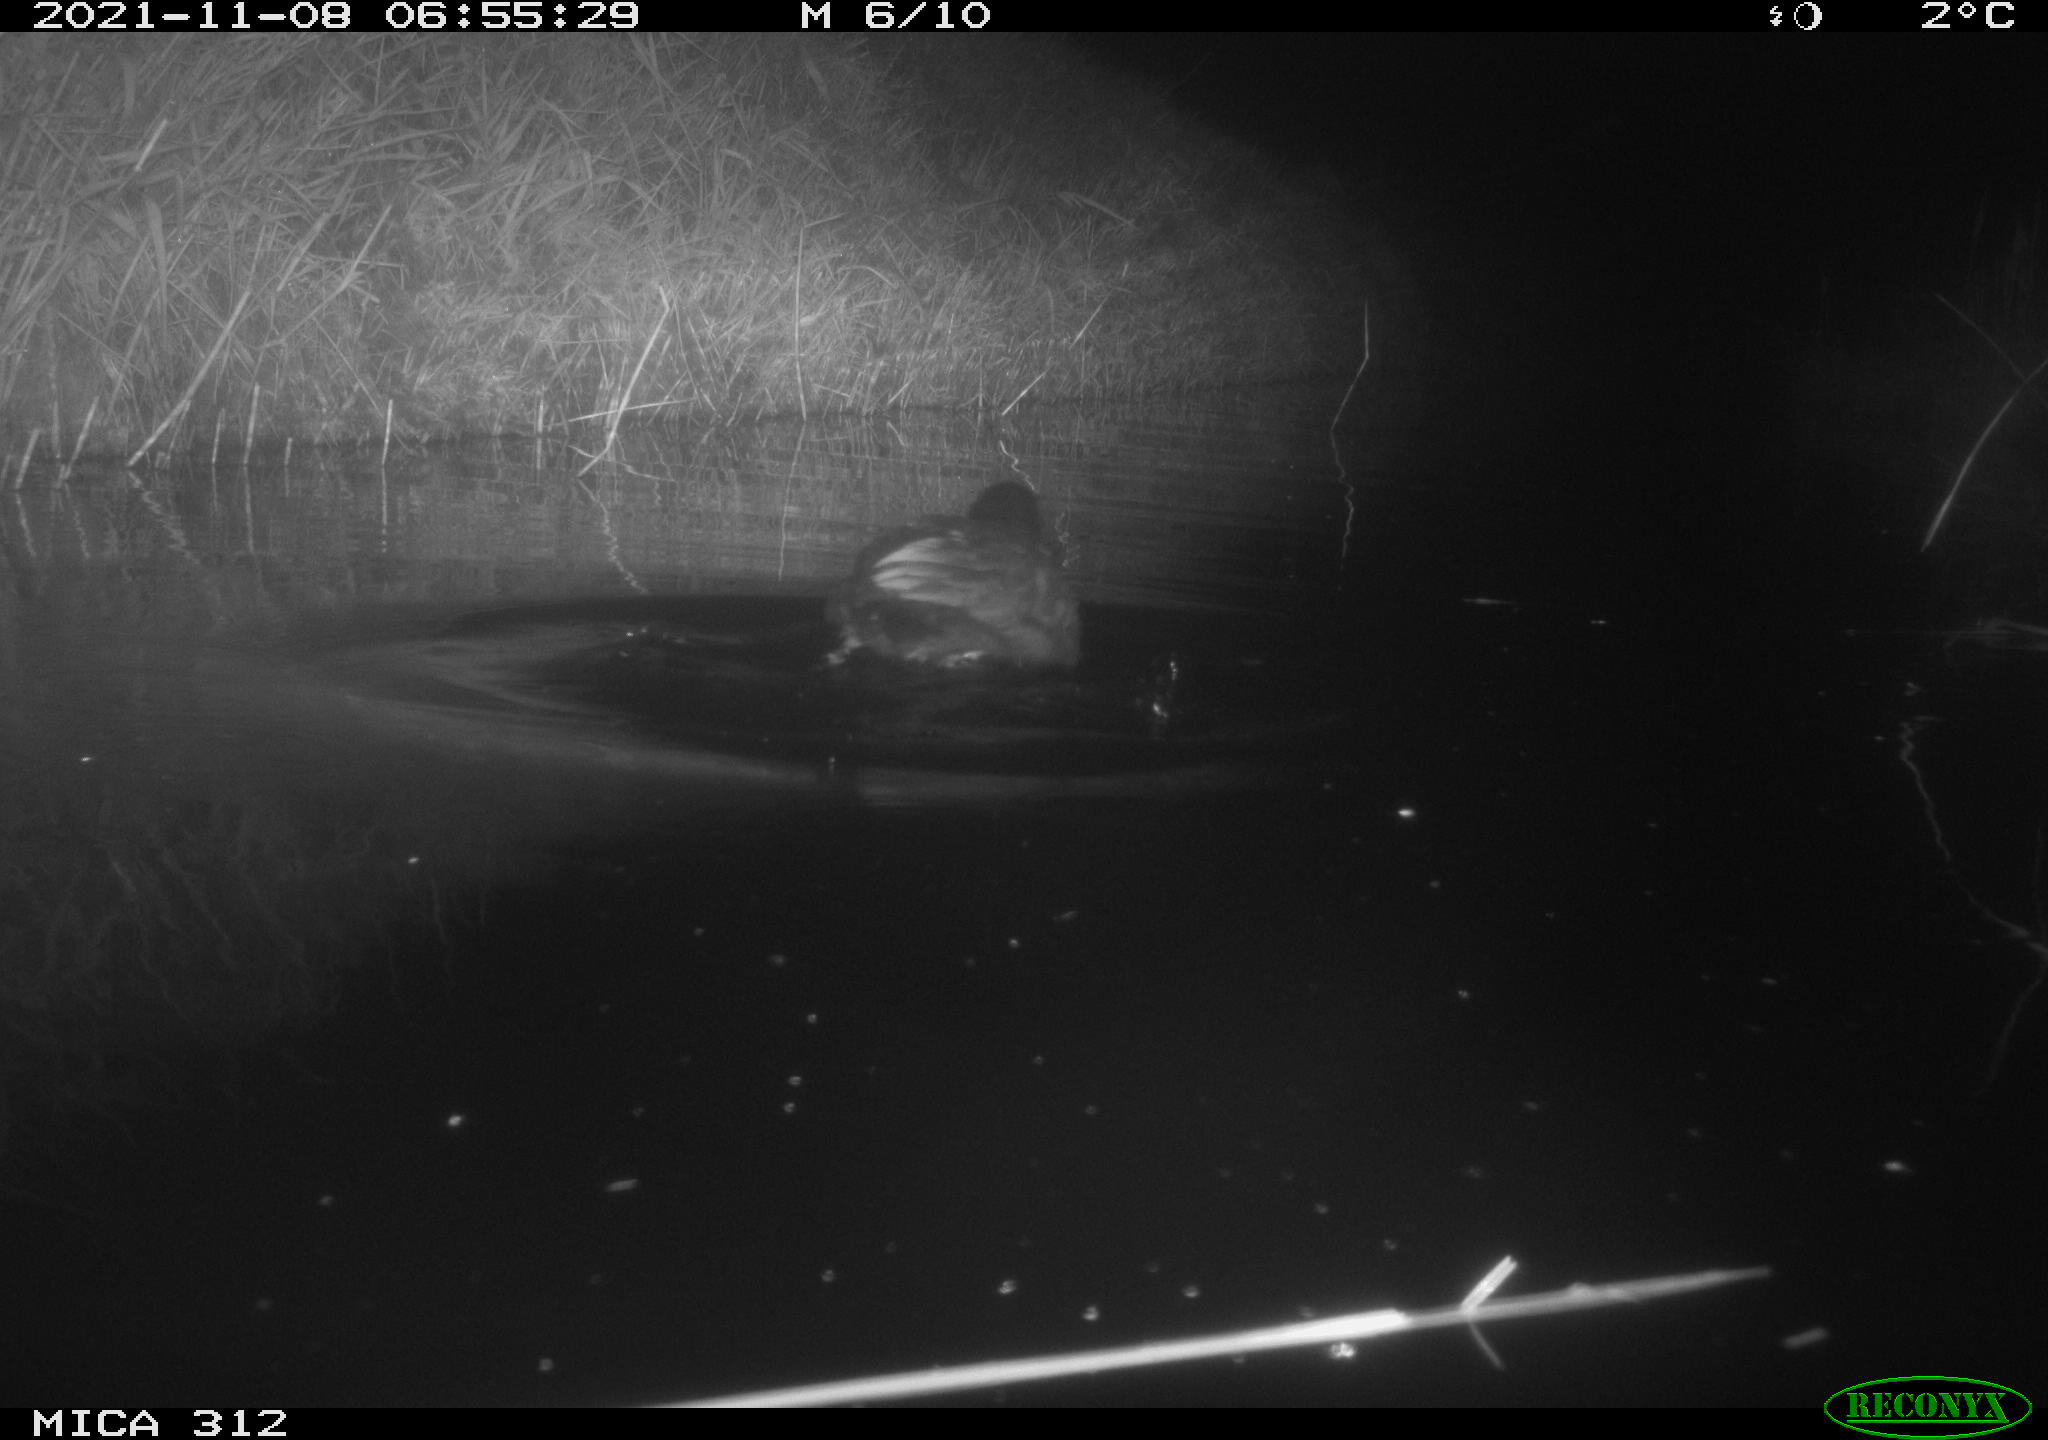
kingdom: Animalia
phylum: Chordata
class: Aves
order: Gruiformes
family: Rallidae
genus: Fulica
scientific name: Fulica atra
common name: Eurasian coot
